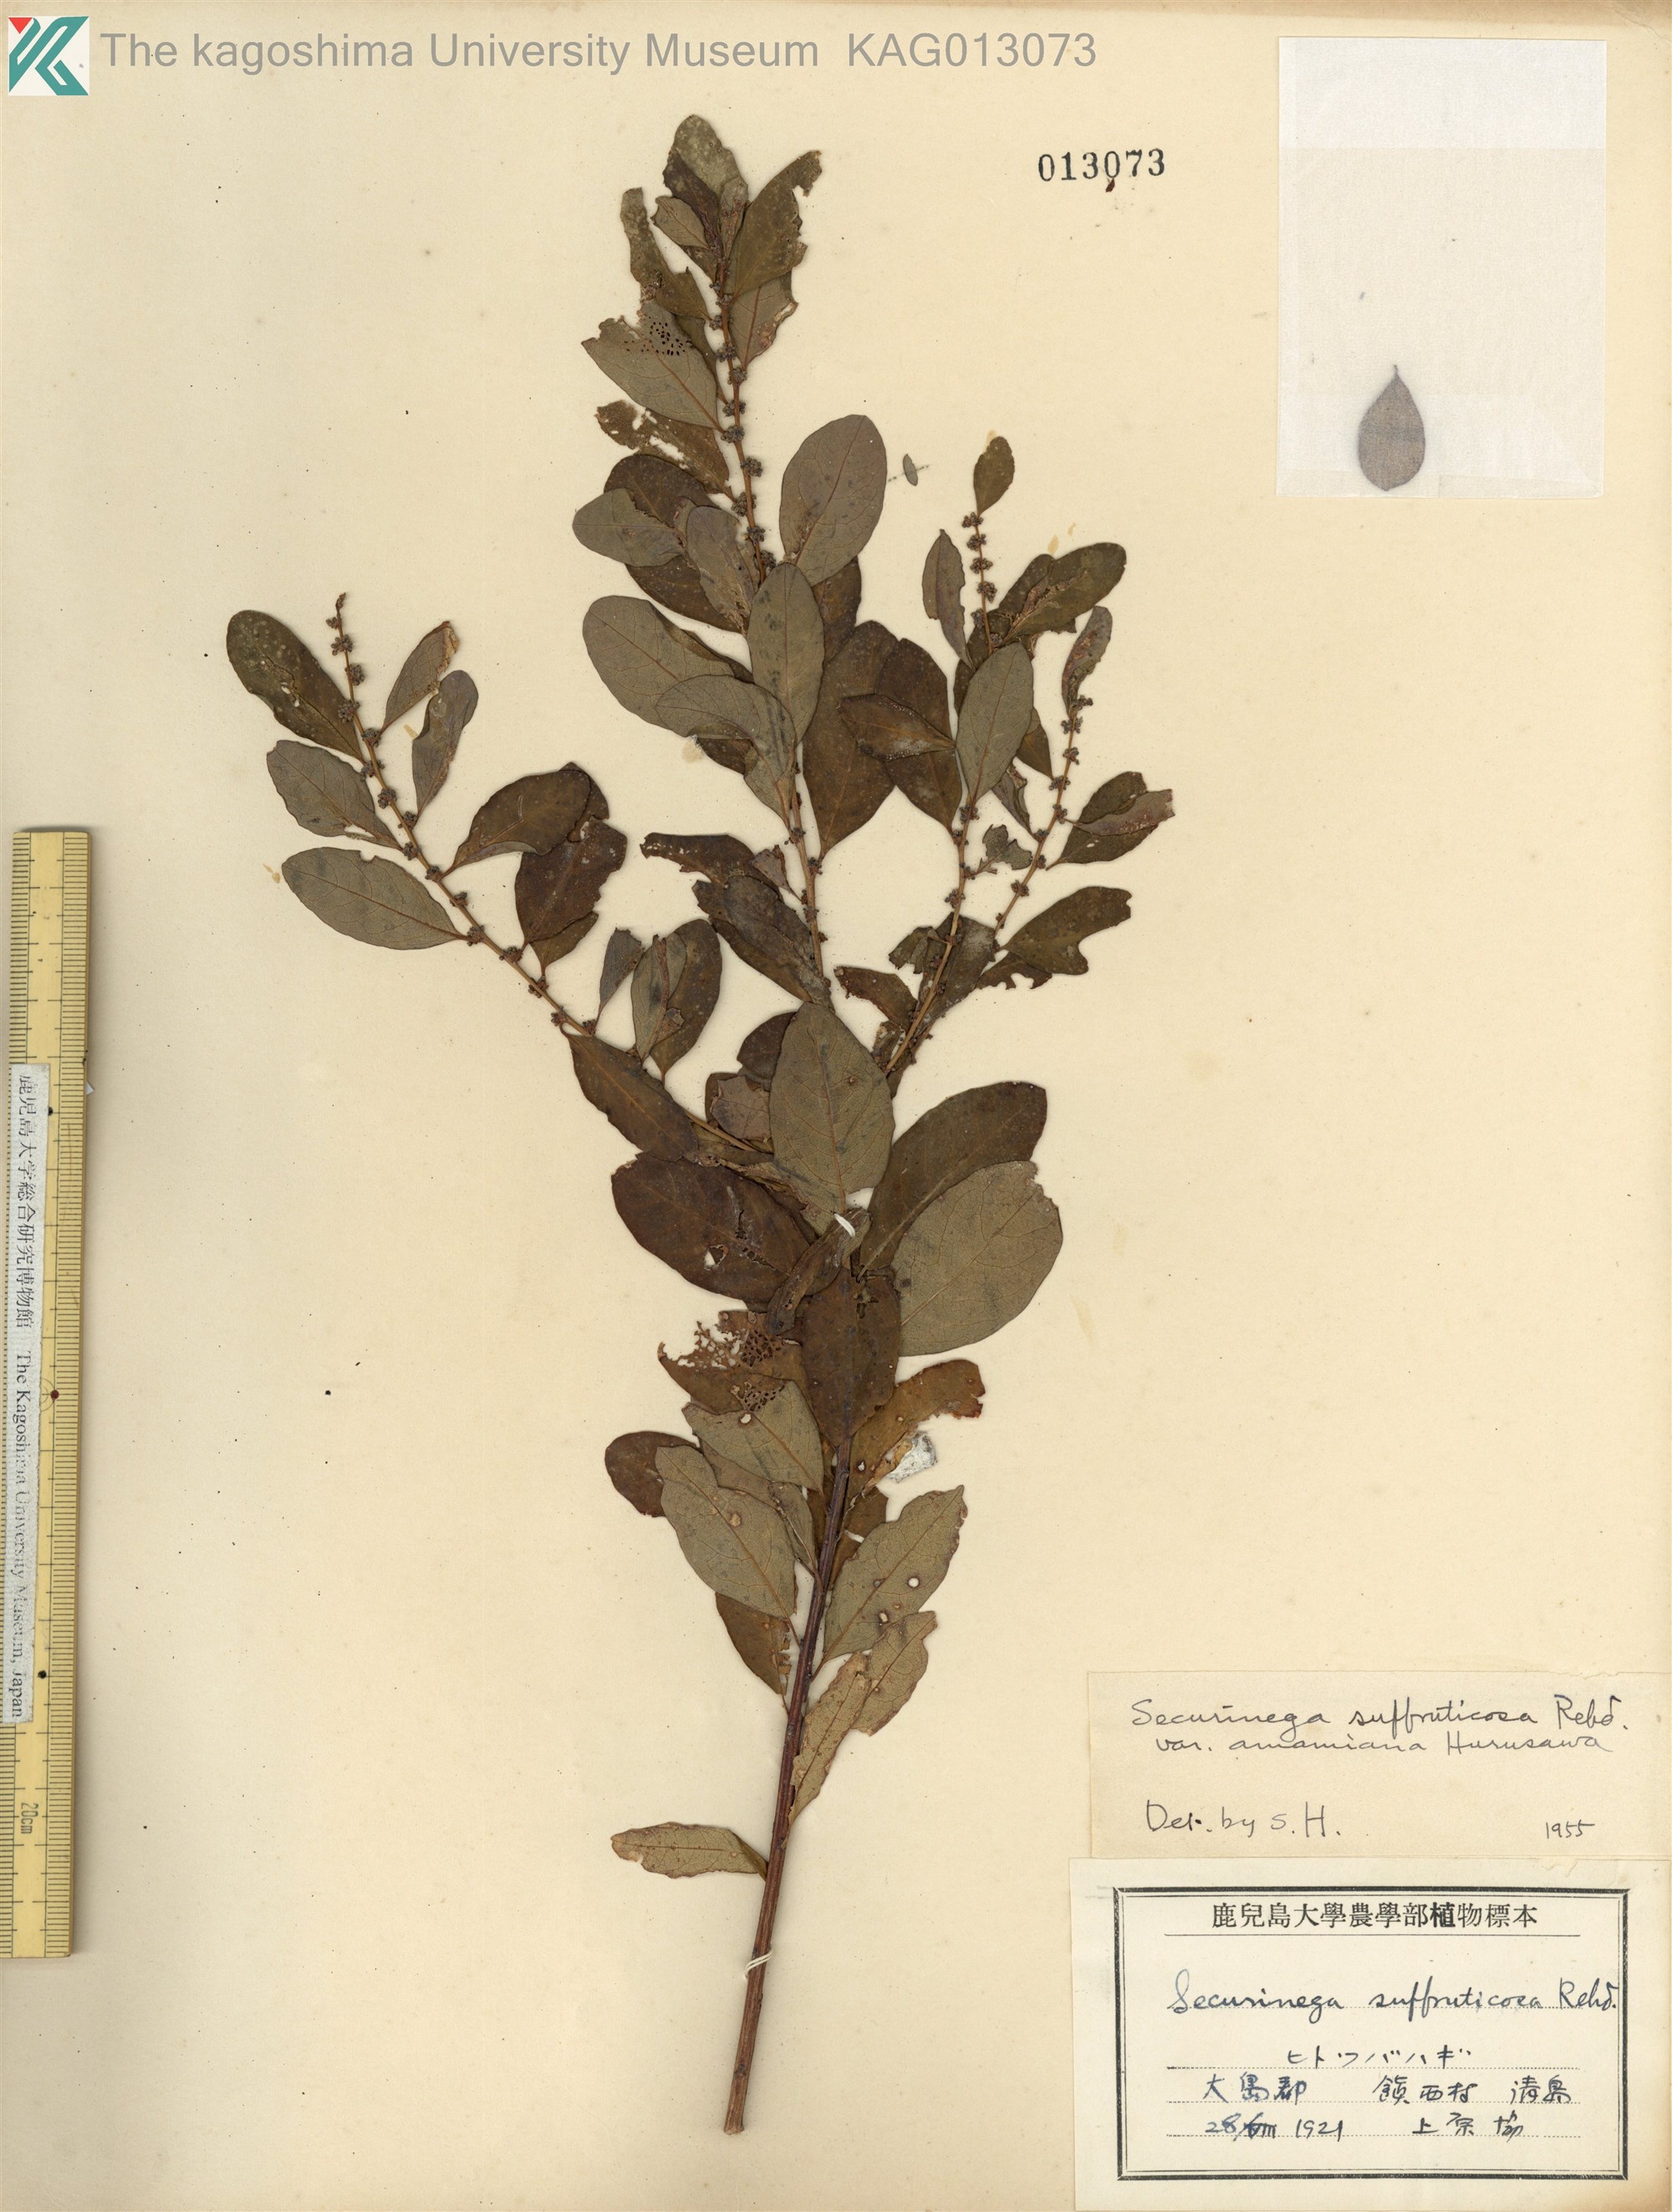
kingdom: Plantae
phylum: Tracheophyta
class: Magnoliopsida
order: Malpighiales
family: Phyllanthaceae
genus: Flueggea
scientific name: Flueggea suffruticosa
